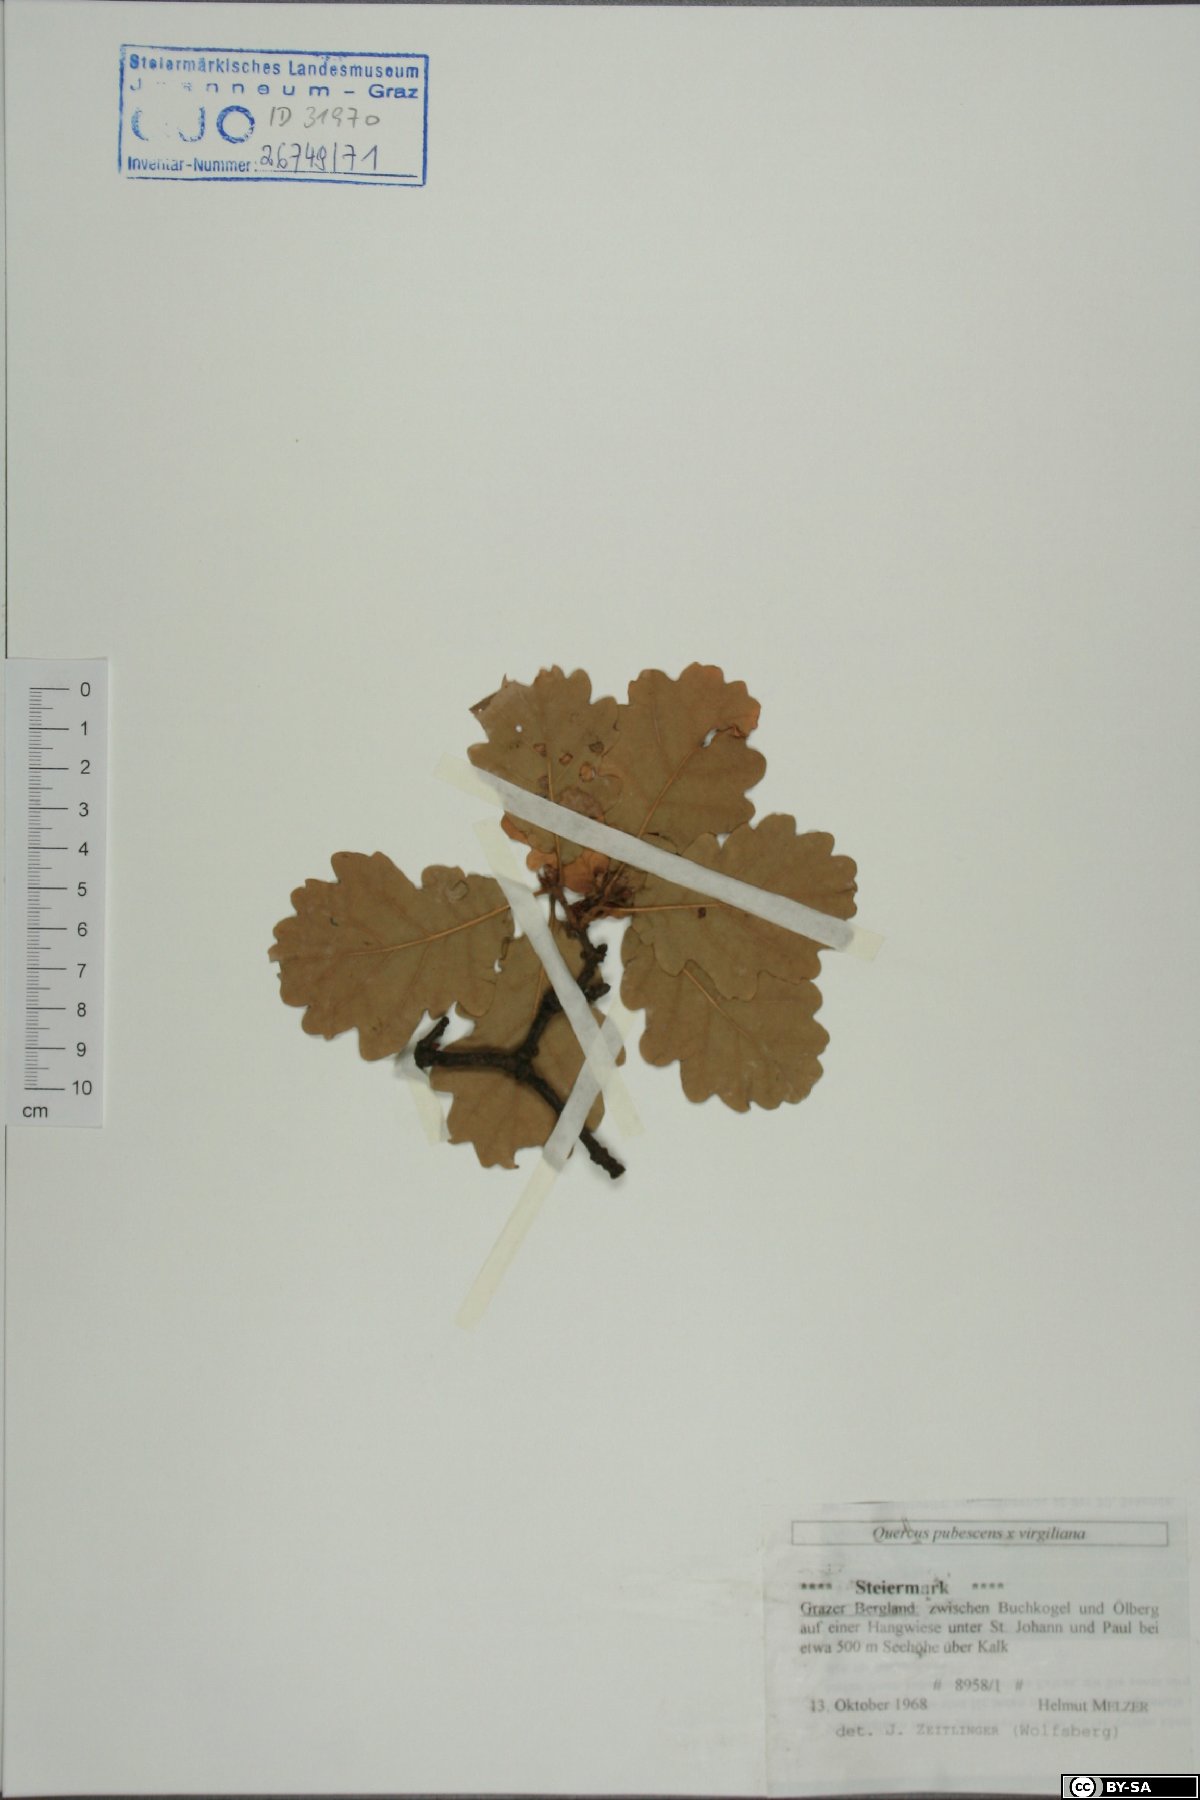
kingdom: Plantae
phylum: Tracheophyta
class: Magnoliopsida
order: Fagales
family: Fagaceae
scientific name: Fagaceae
